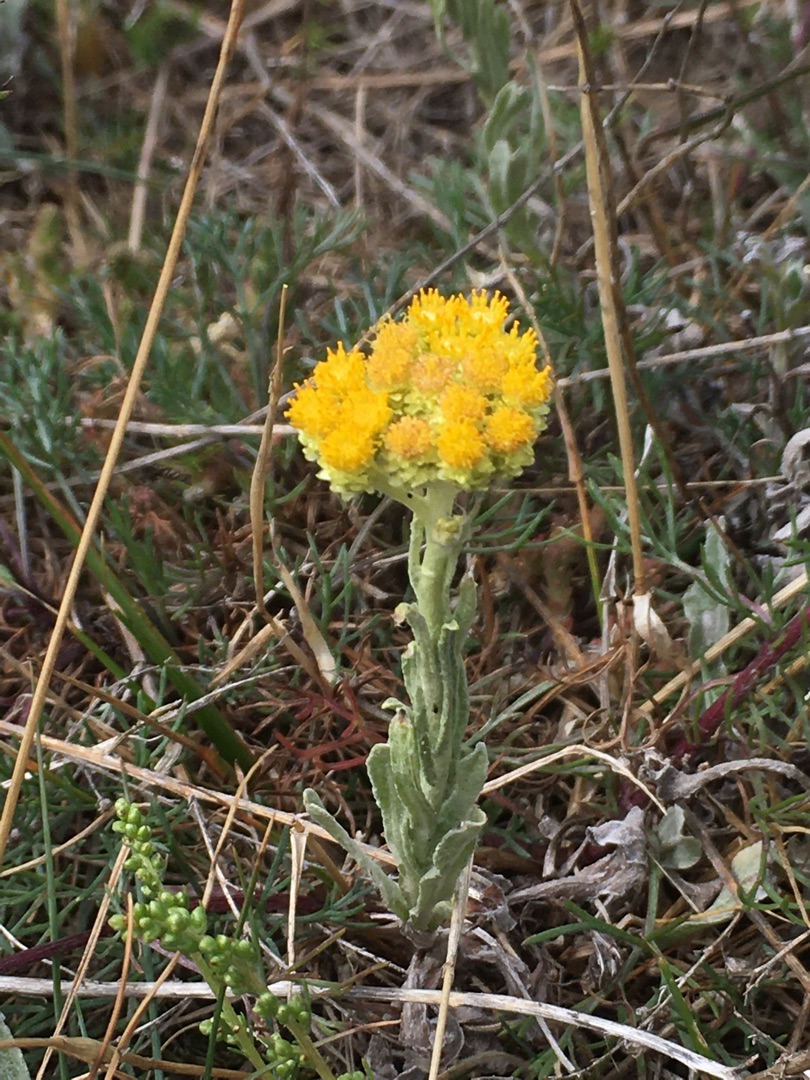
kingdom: Plantae
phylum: Tracheophyta
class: Magnoliopsida
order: Asterales
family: Asteraceae
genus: Helichrysum
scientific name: Helichrysum arenarium
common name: Gul evighedsblomst
